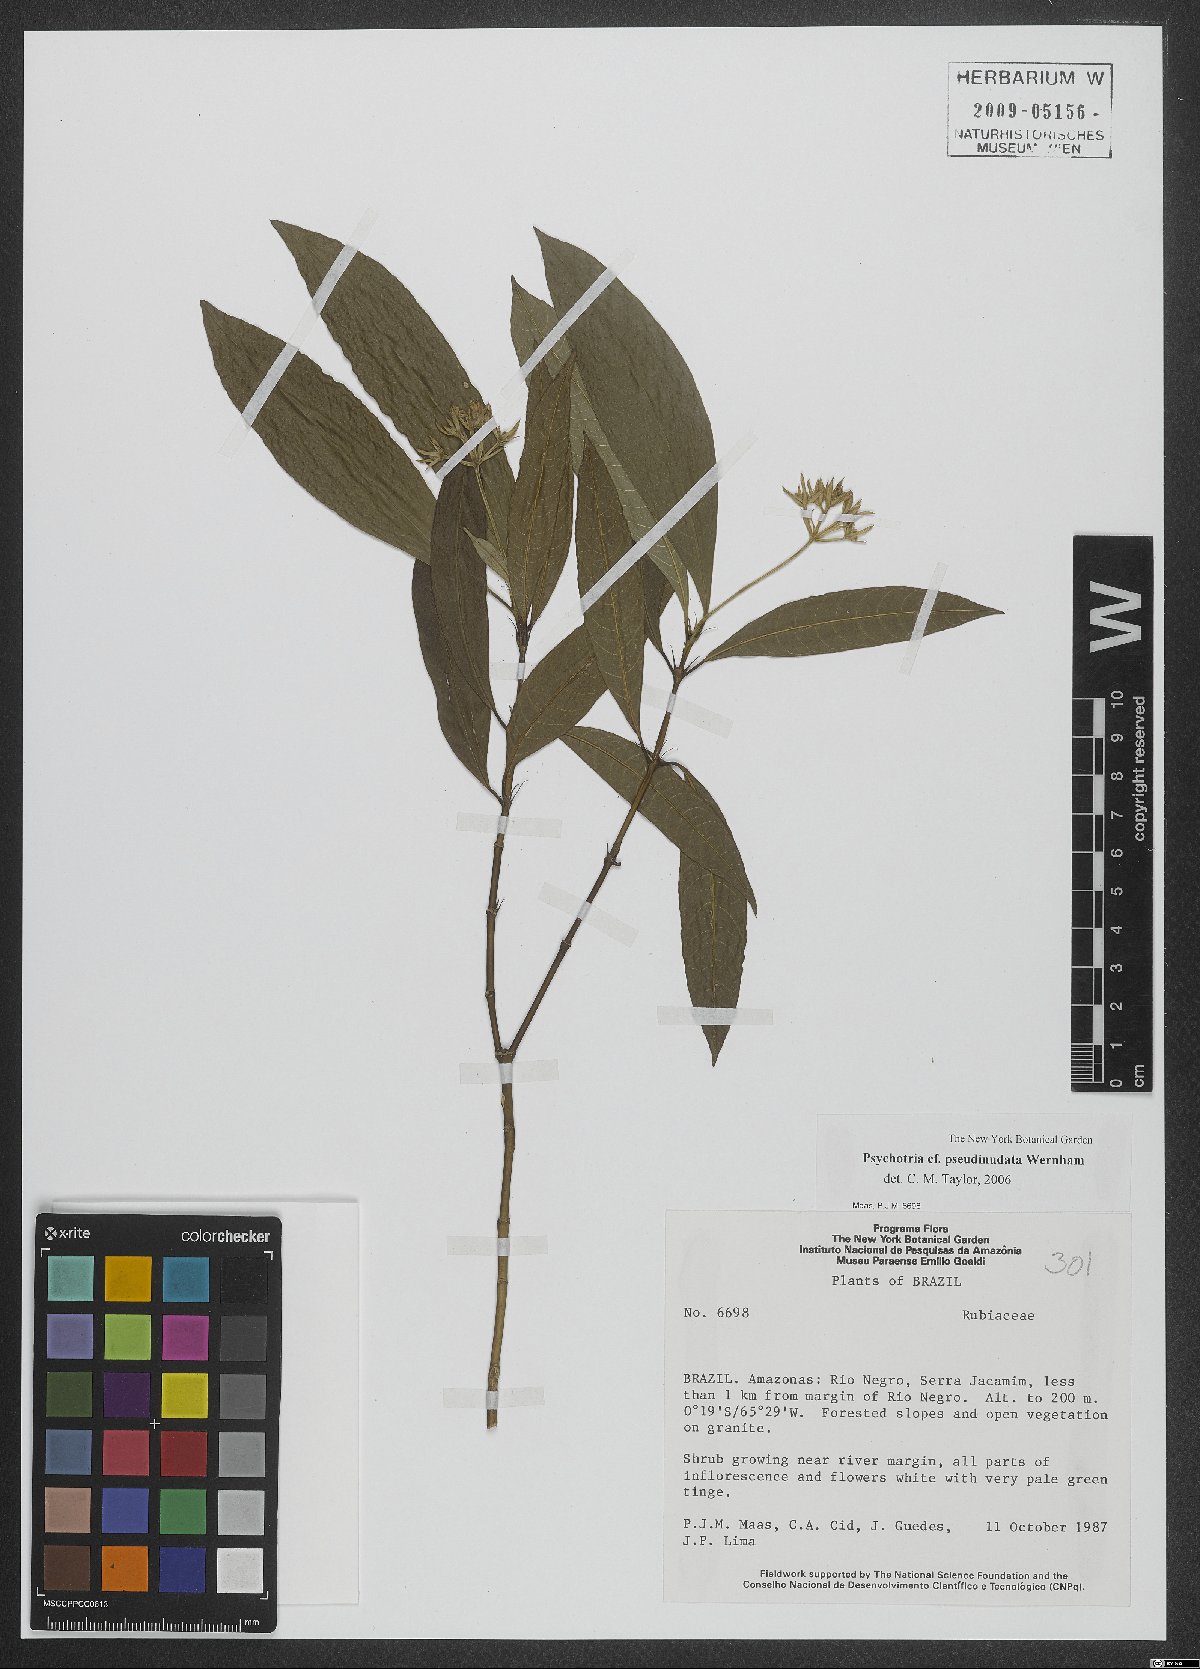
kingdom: Plantae
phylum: Tracheophyta
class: Magnoliopsida
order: Gentianales
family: Rubiaceae
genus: Palicourea
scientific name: Palicourea pseudinundata
